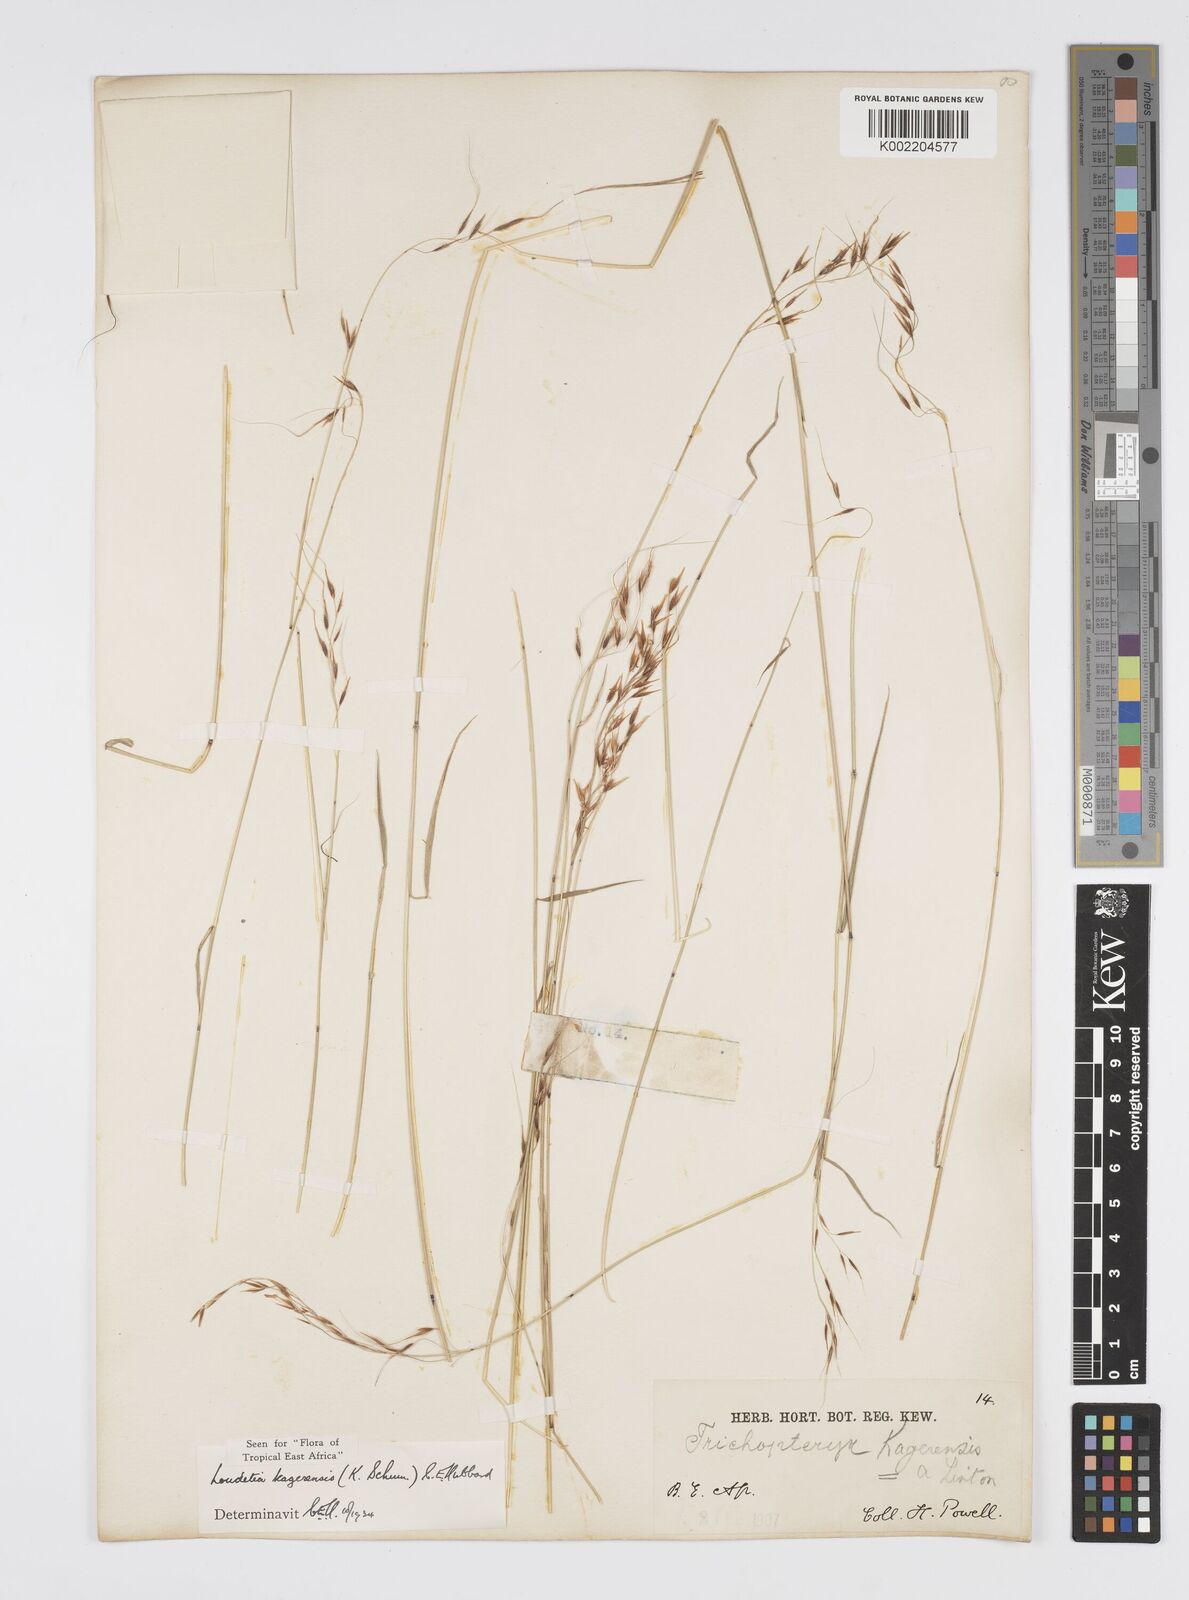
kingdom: Plantae
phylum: Tracheophyta
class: Liliopsida
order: Poales
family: Poaceae
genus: Loudetia
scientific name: Loudetia kagerensis
